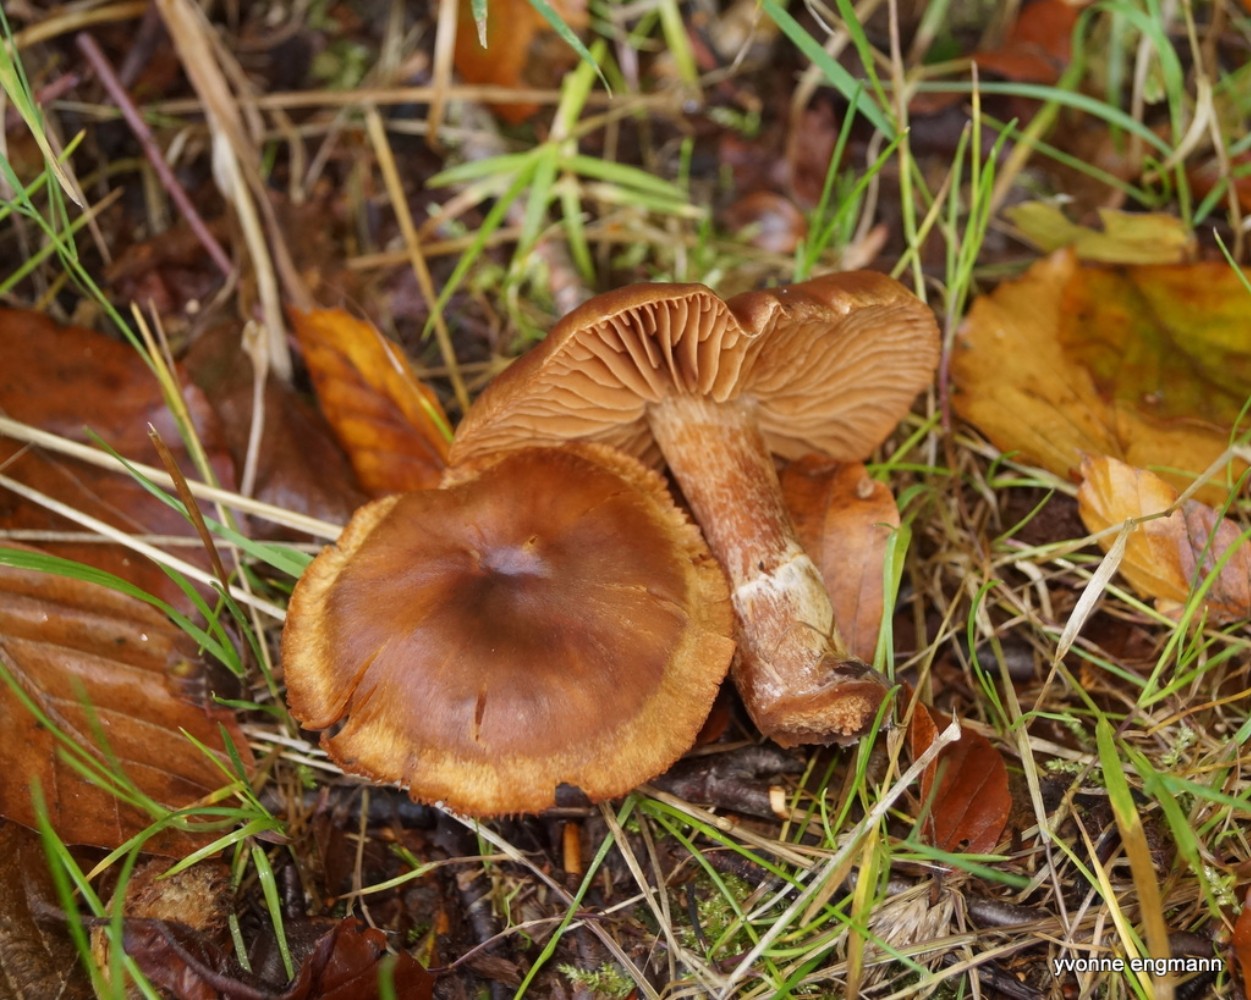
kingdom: Fungi
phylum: Basidiomycota
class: Agaricomycetes
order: Agaricales
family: Cortinariaceae
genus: Cortinarius
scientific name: Cortinarius
